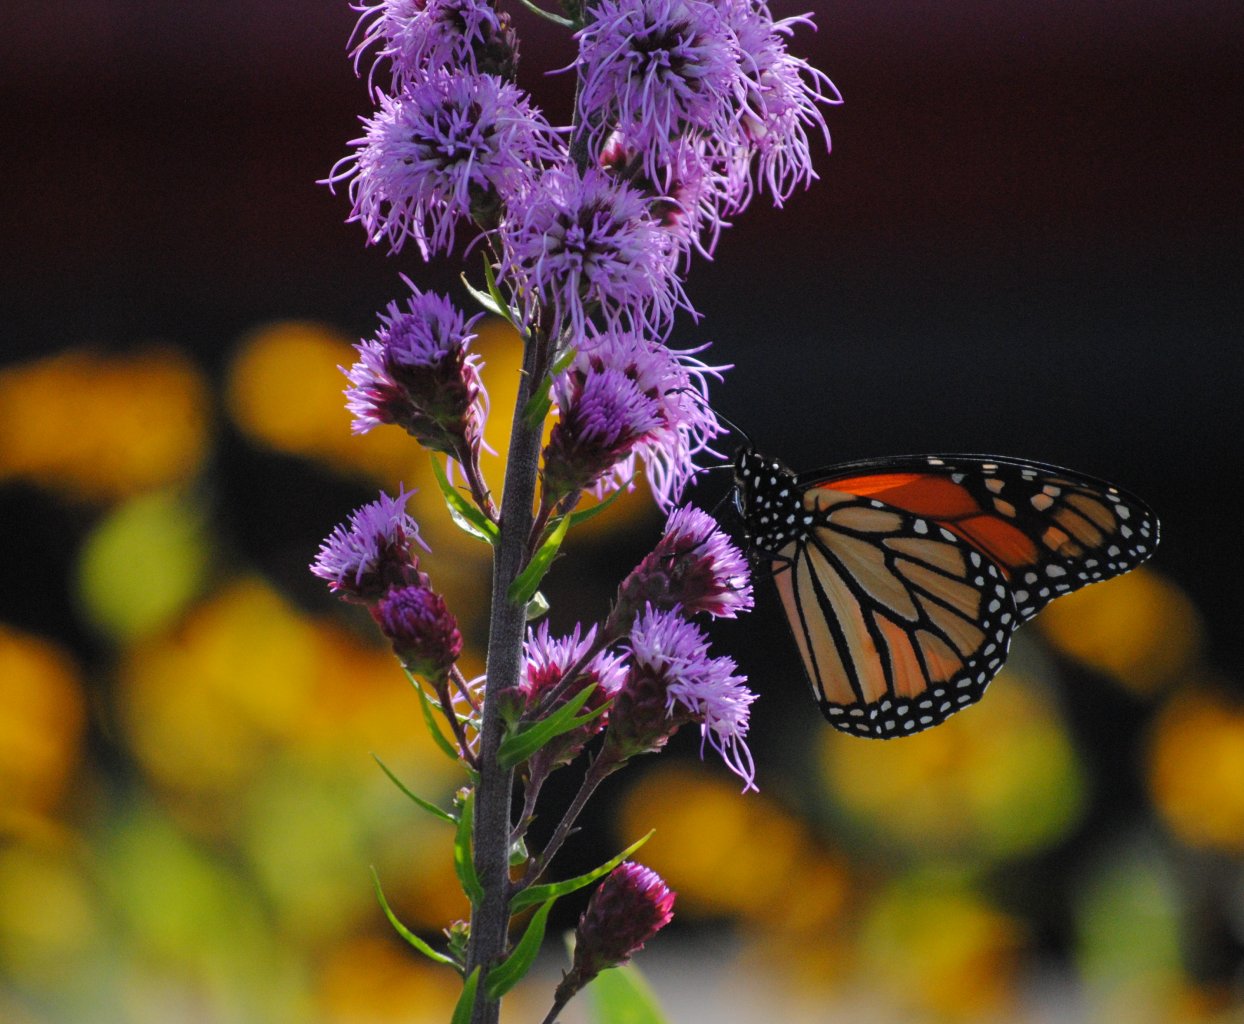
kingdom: Animalia
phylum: Arthropoda
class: Insecta
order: Lepidoptera
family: Nymphalidae
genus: Danaus
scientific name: Danaus plexippus
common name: Monarch
